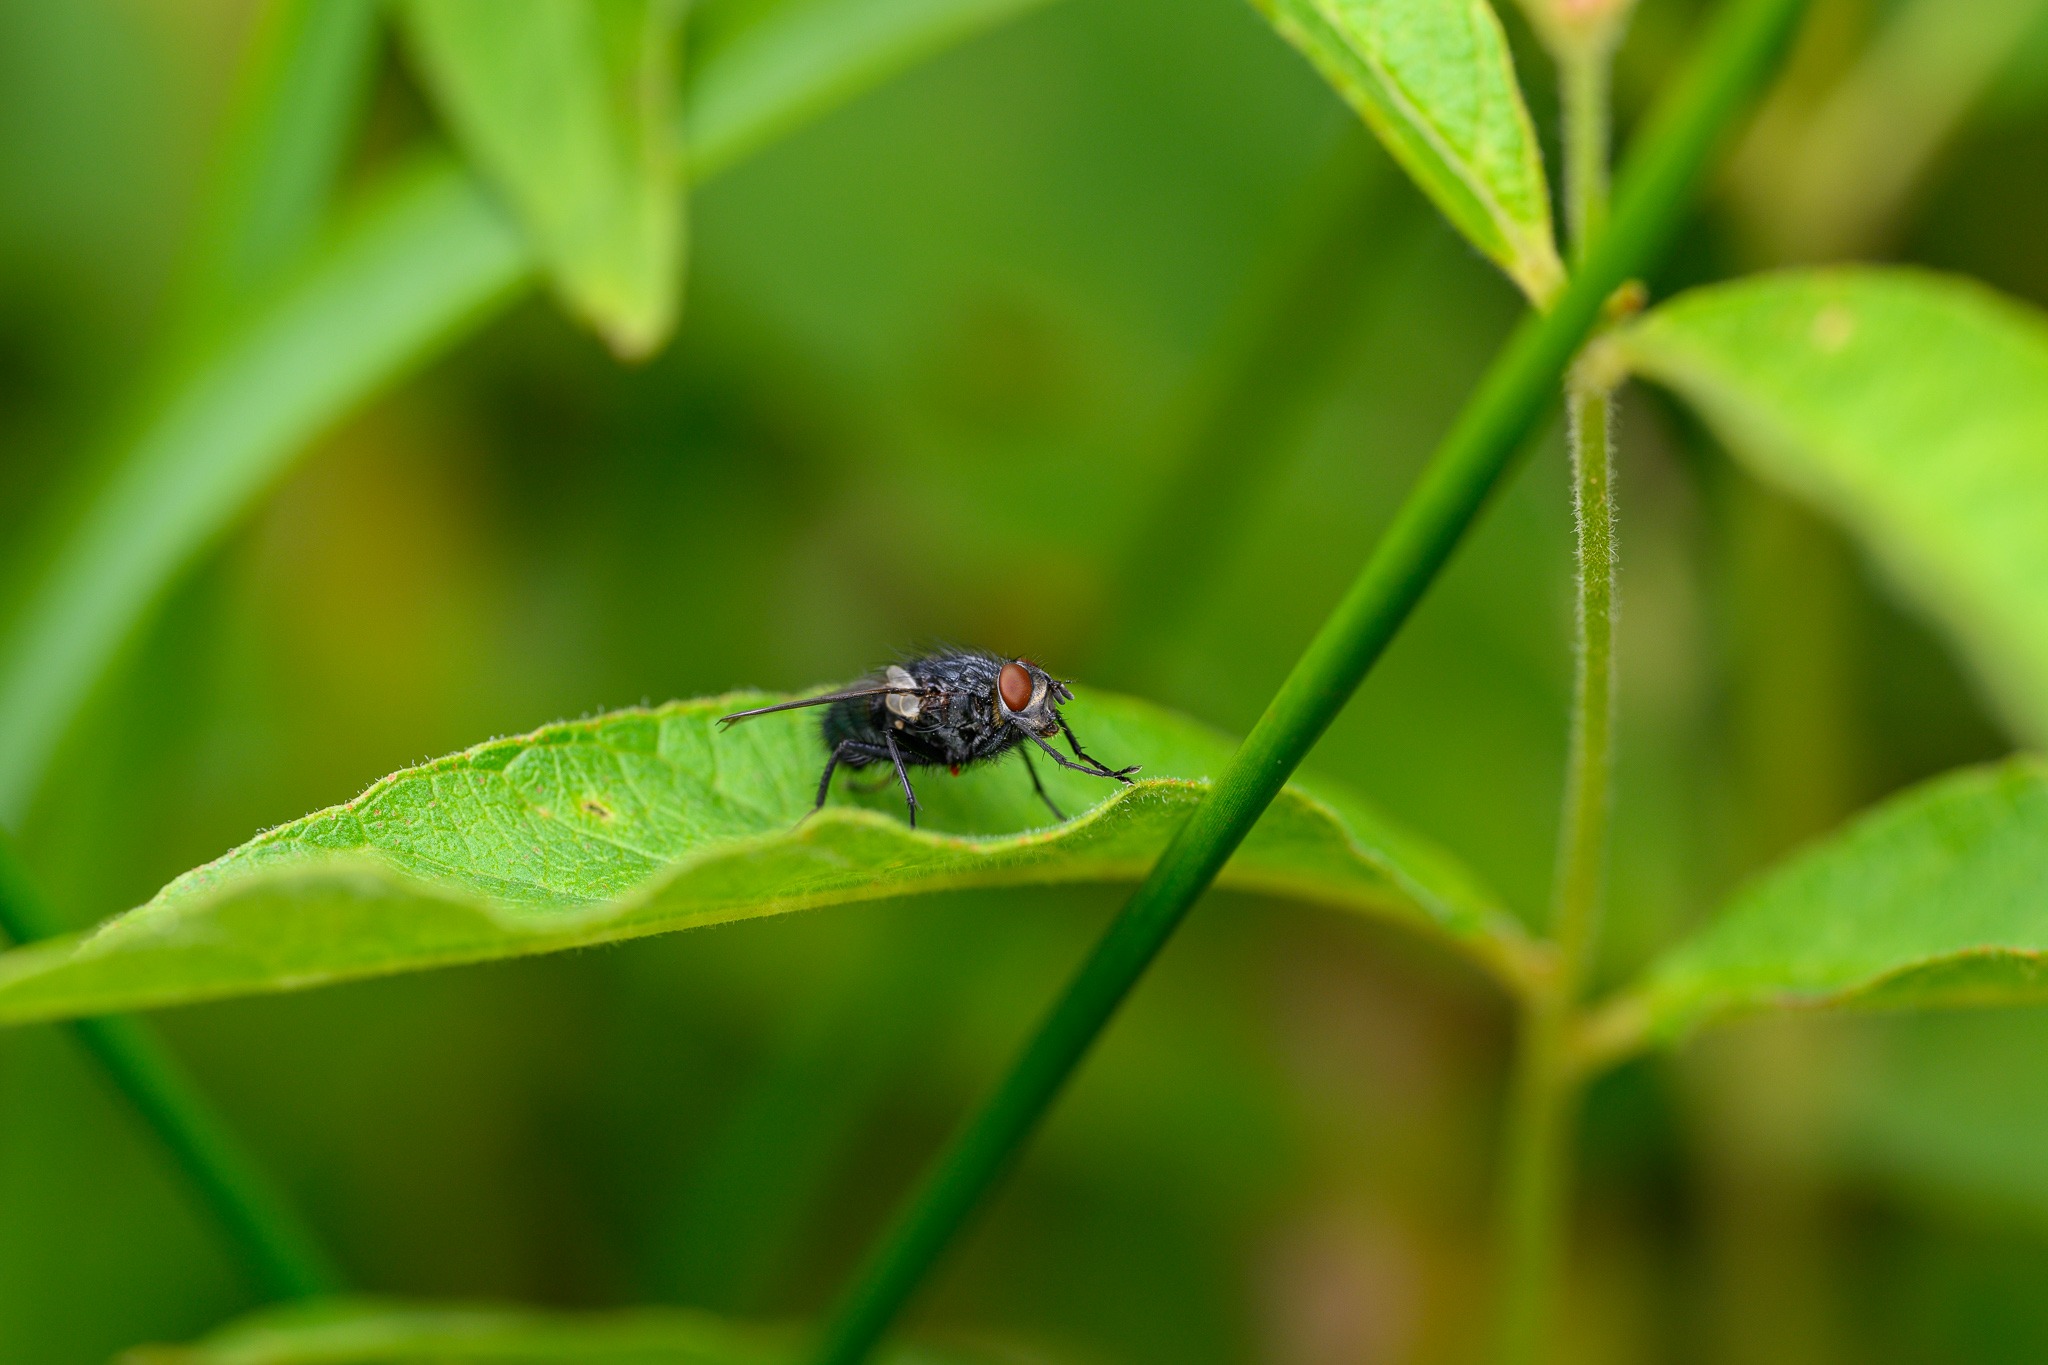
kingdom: Animalia
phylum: Arthropoda
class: Insecta
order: Diptera
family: Calliphoridae
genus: Calliphora
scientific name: Calliphora
